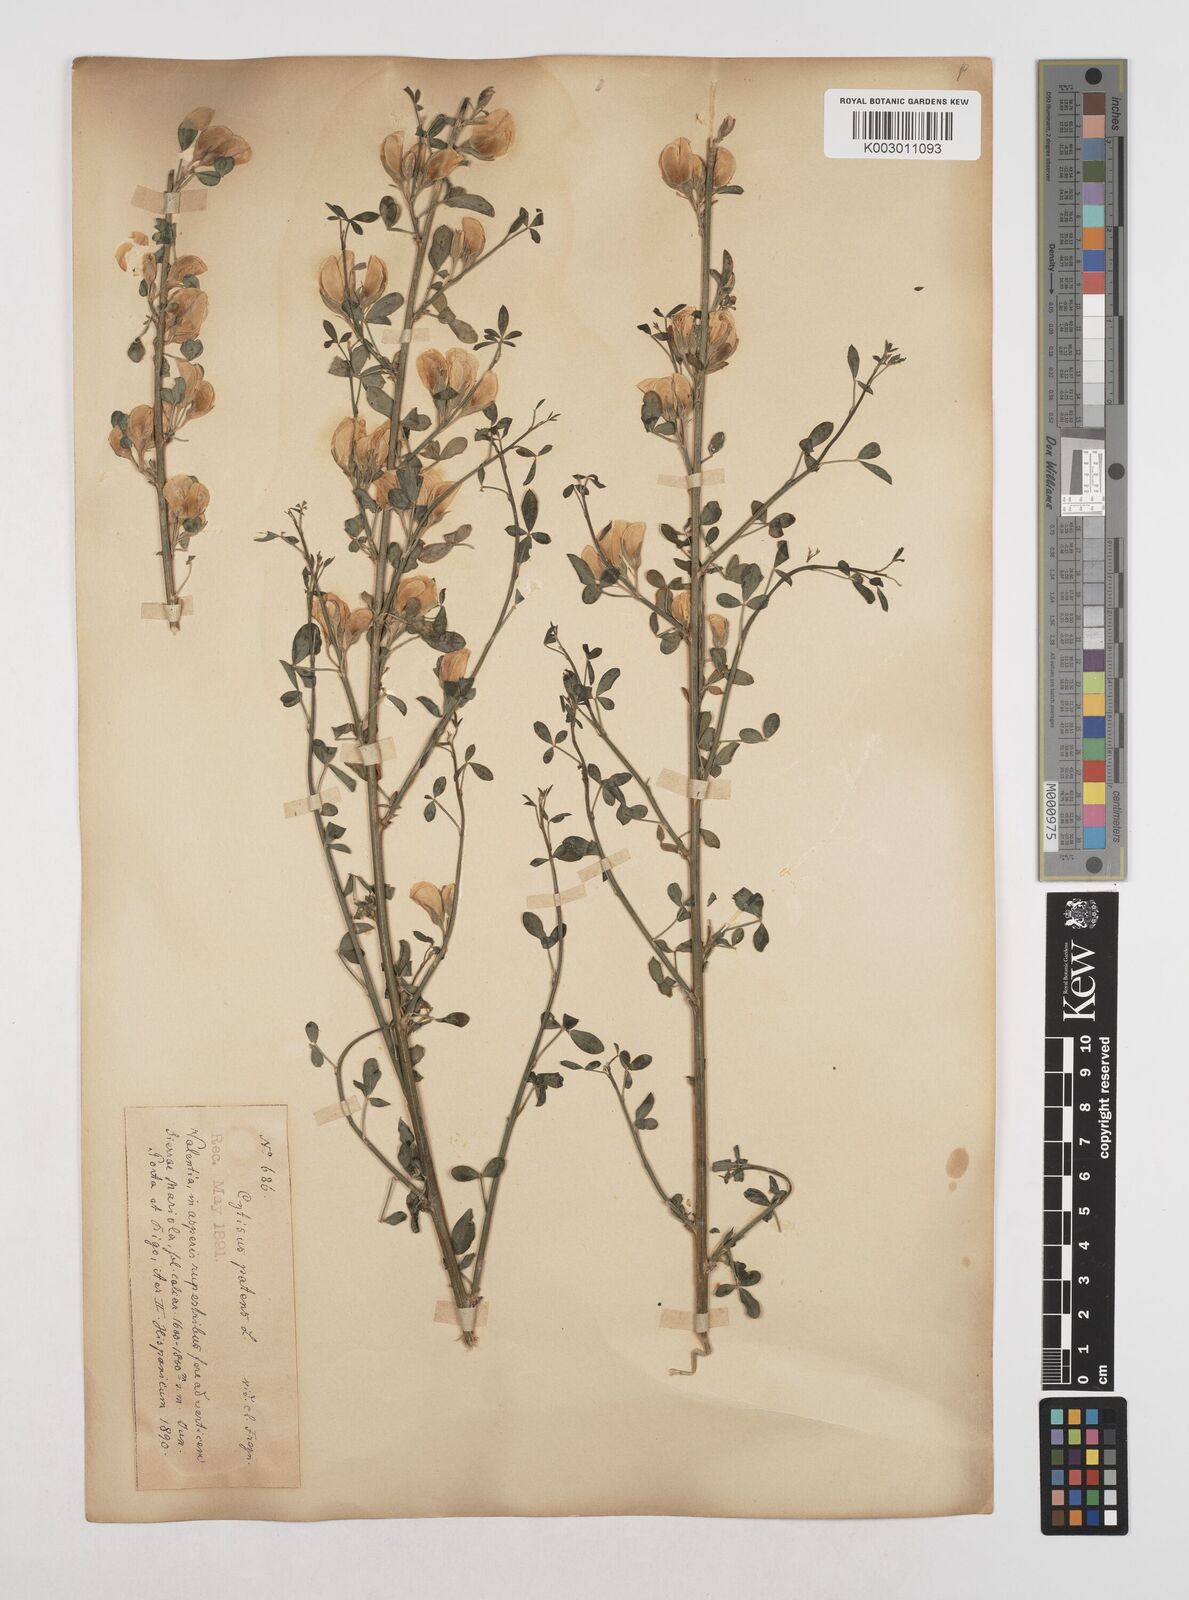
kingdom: Plantae
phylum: Tracheophyta
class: Magnoliopsida
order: Fabales
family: Fabaceae
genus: Cytisus
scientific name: Cytisus scoparius
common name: Scotch broom
